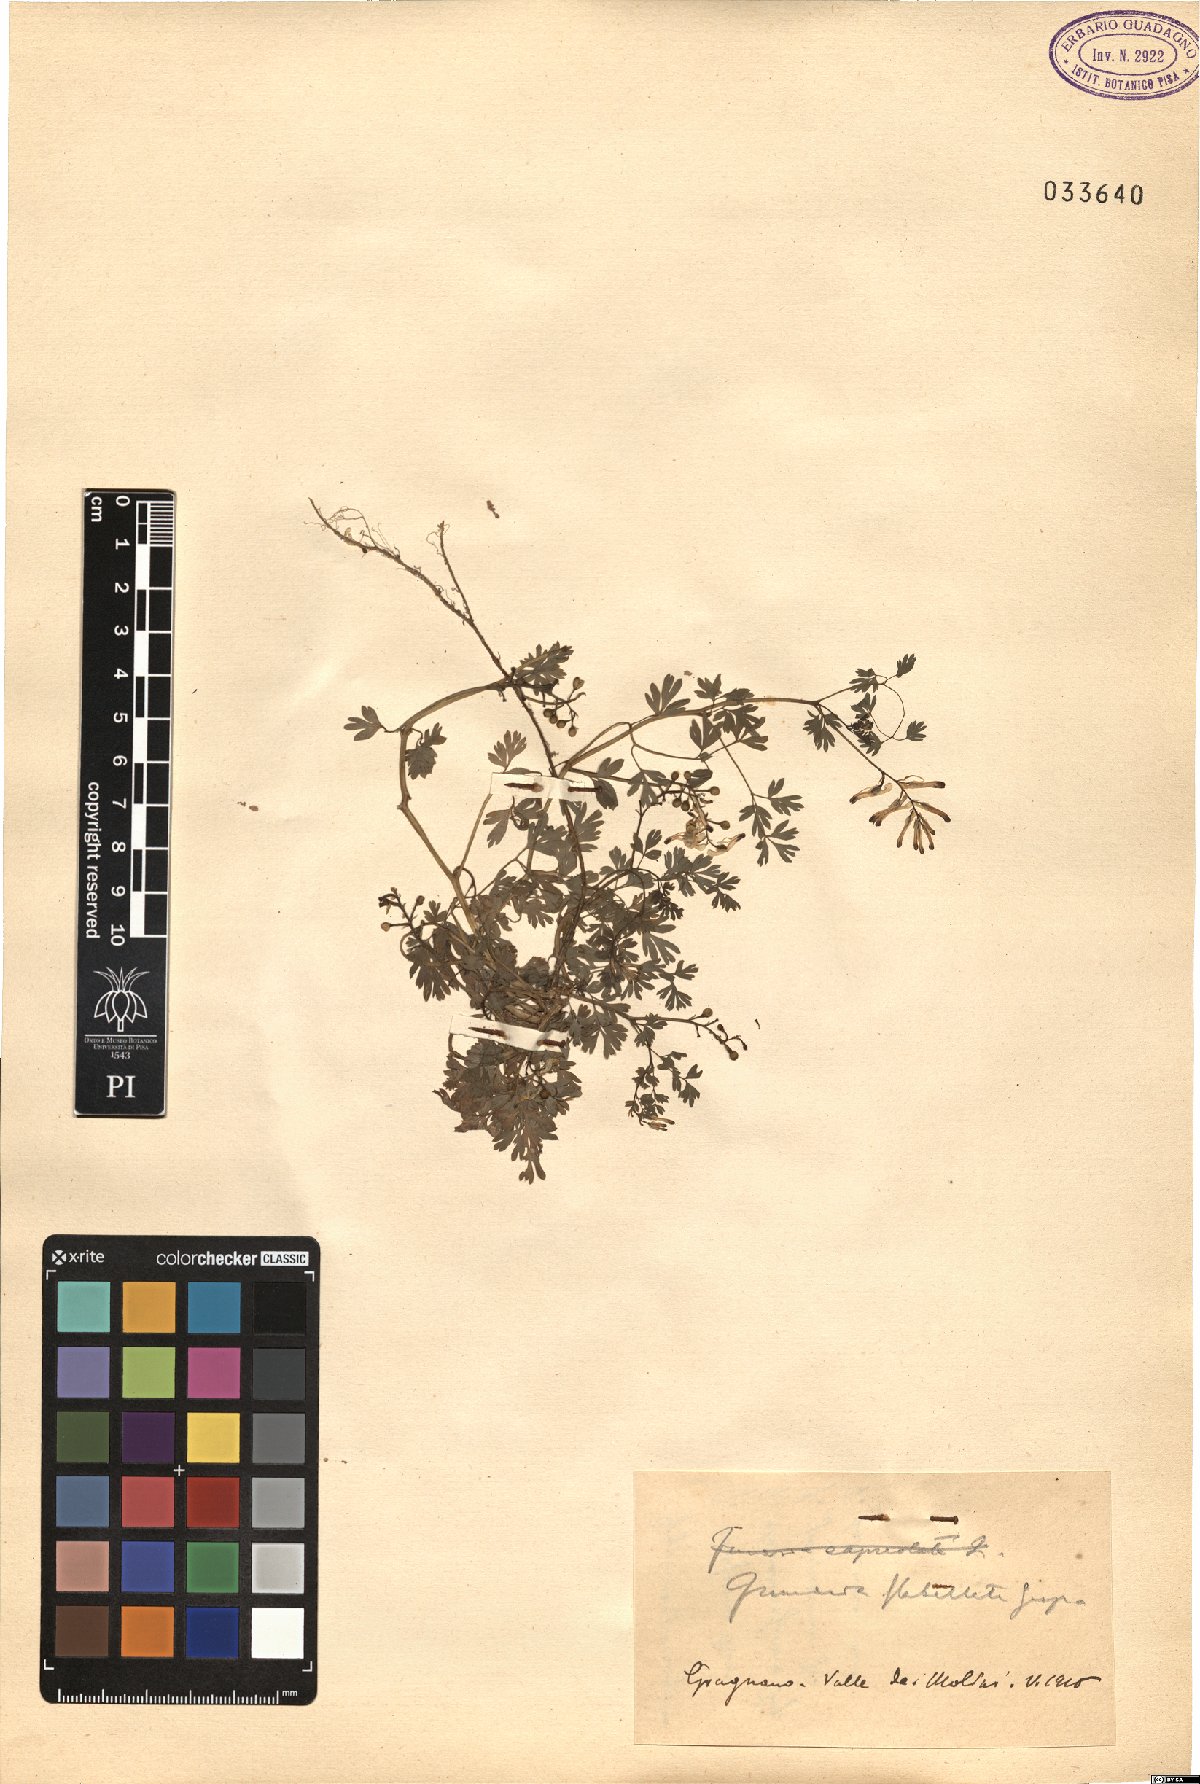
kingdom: Plantae
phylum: Tracheophyta
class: Magnoliopsida
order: Ranunculales
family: Papaveraceae
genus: Fumaria
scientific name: Fumaria flabellata
